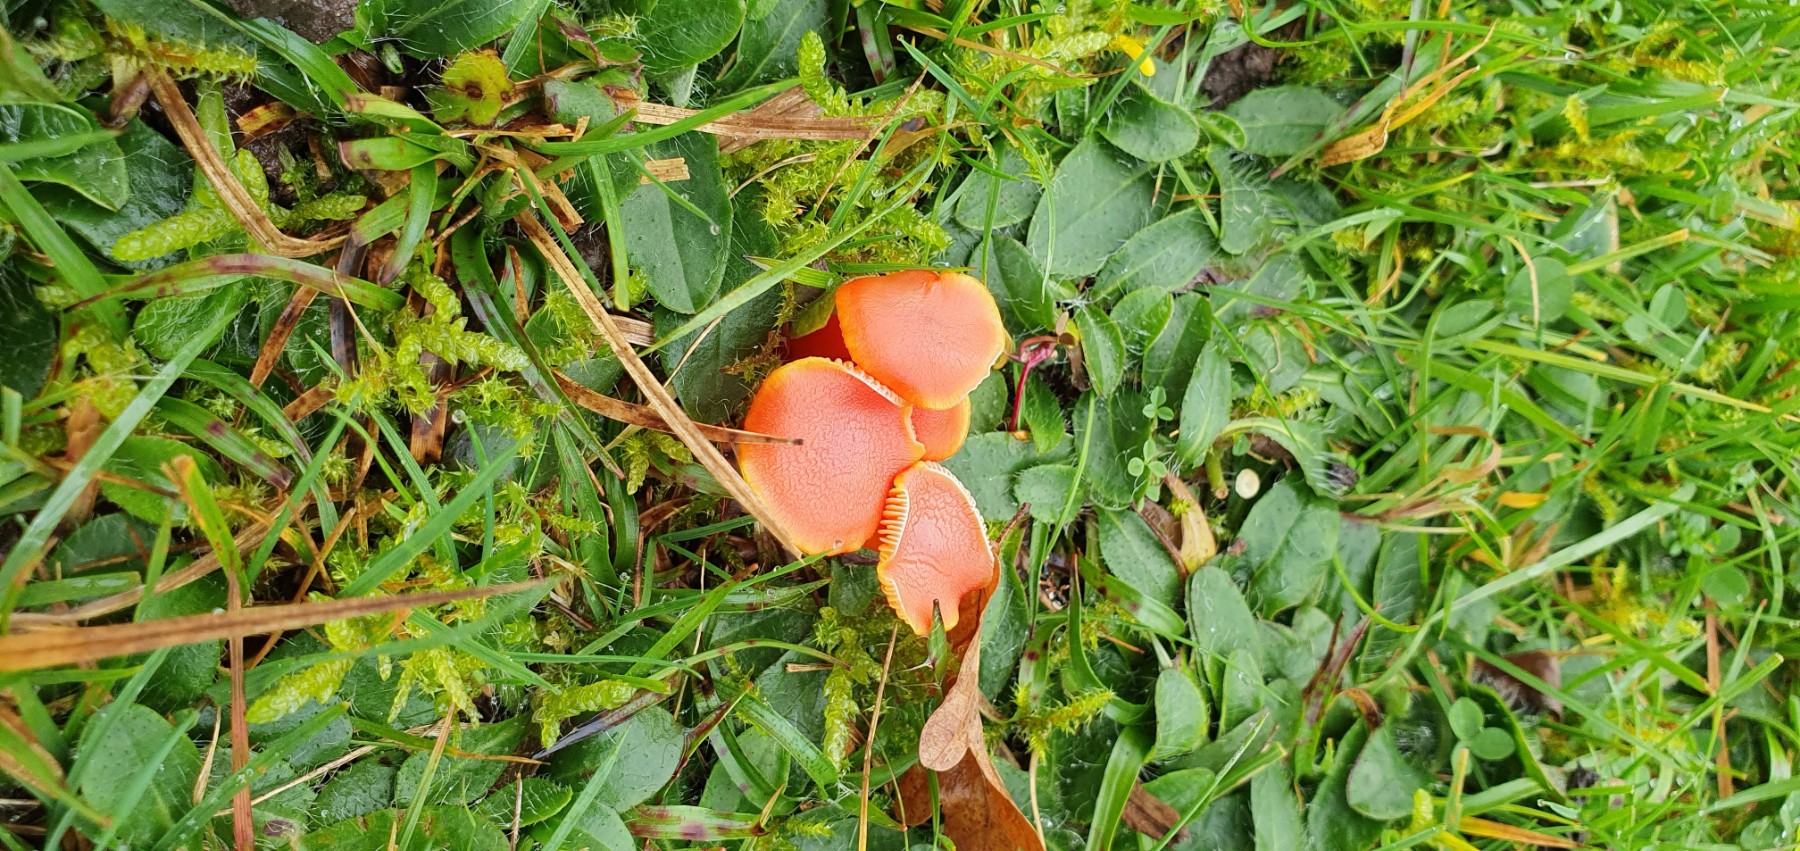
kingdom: Fungi
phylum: Basidiomycota
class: Agaricomycetes
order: Agaricales
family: Hygrophoraceae
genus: Hygrocybe
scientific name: Hygrocybe miniata
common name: mønje-vokshat
